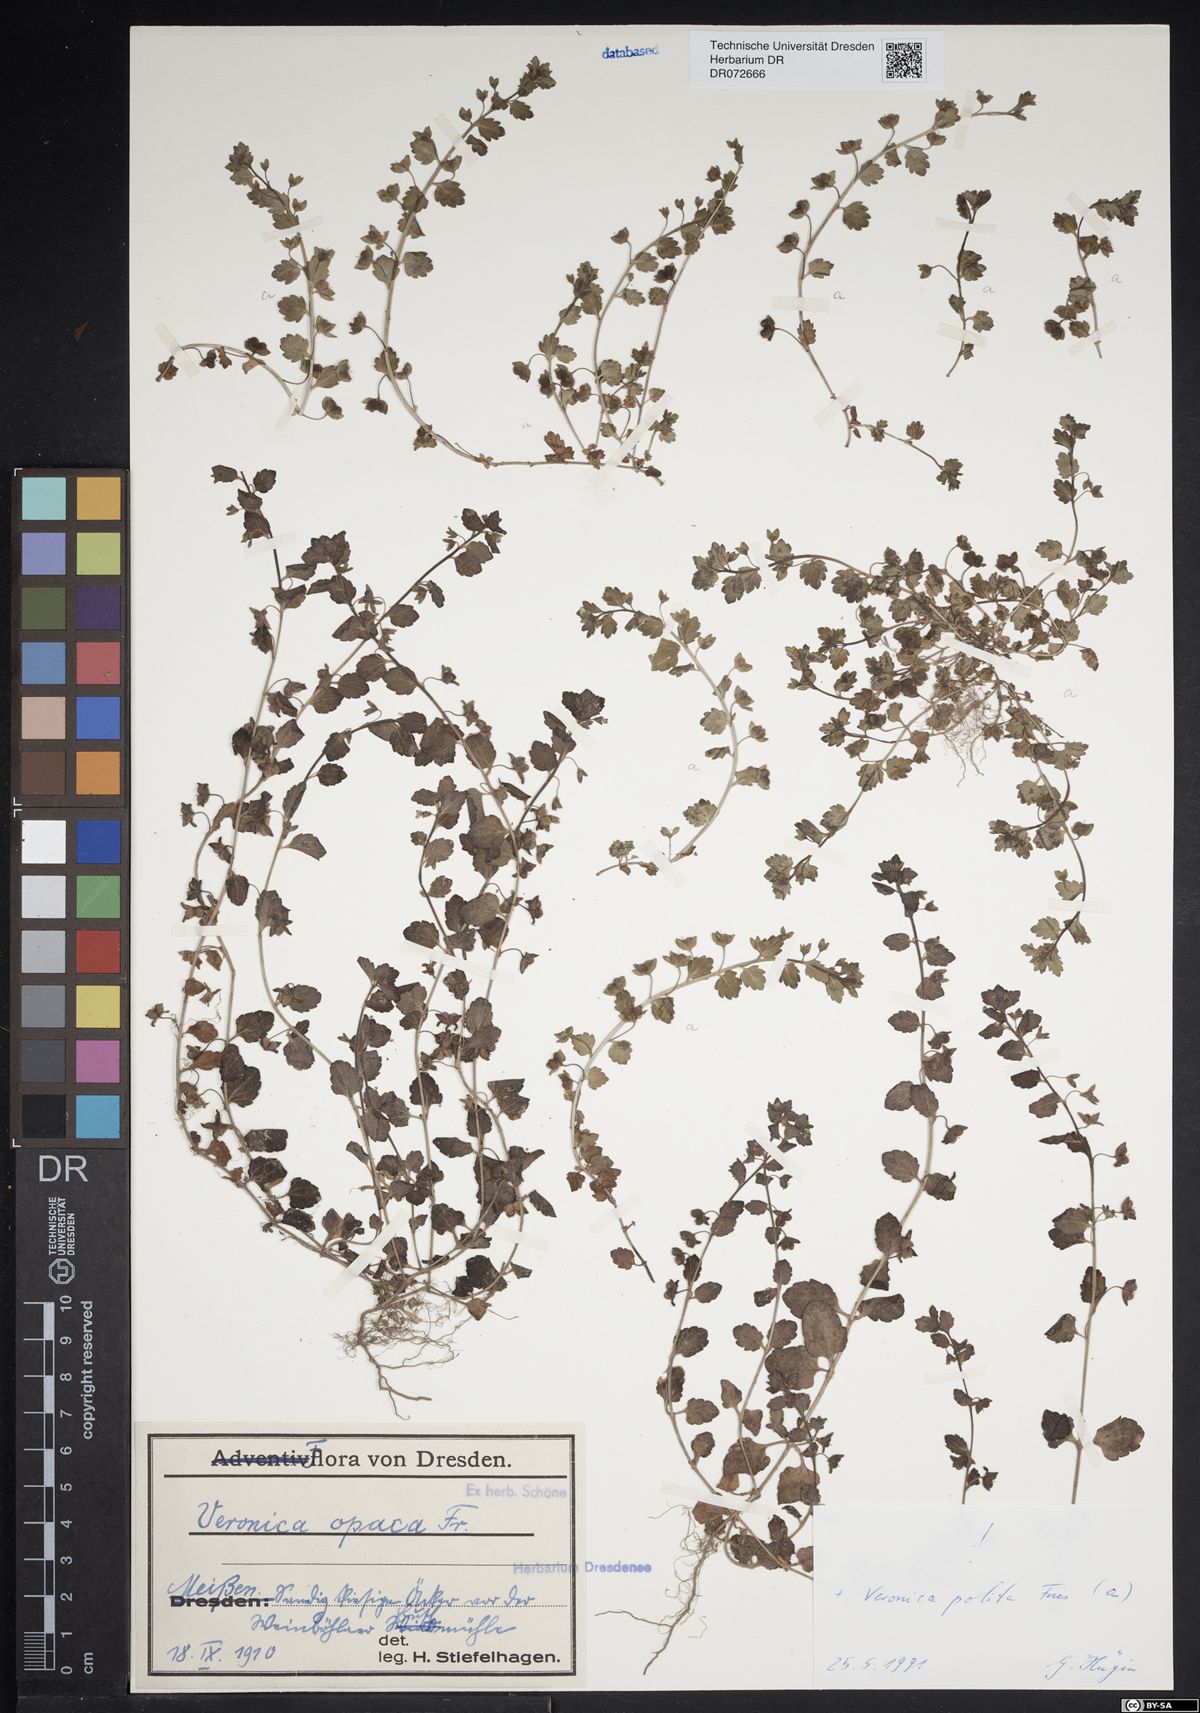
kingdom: Plantae
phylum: Tracheophyta
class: Magnoliopsida
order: Lamiales
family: Plantaginaceae
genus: Veronica
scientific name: Veronica opaca
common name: Dark speedwell
